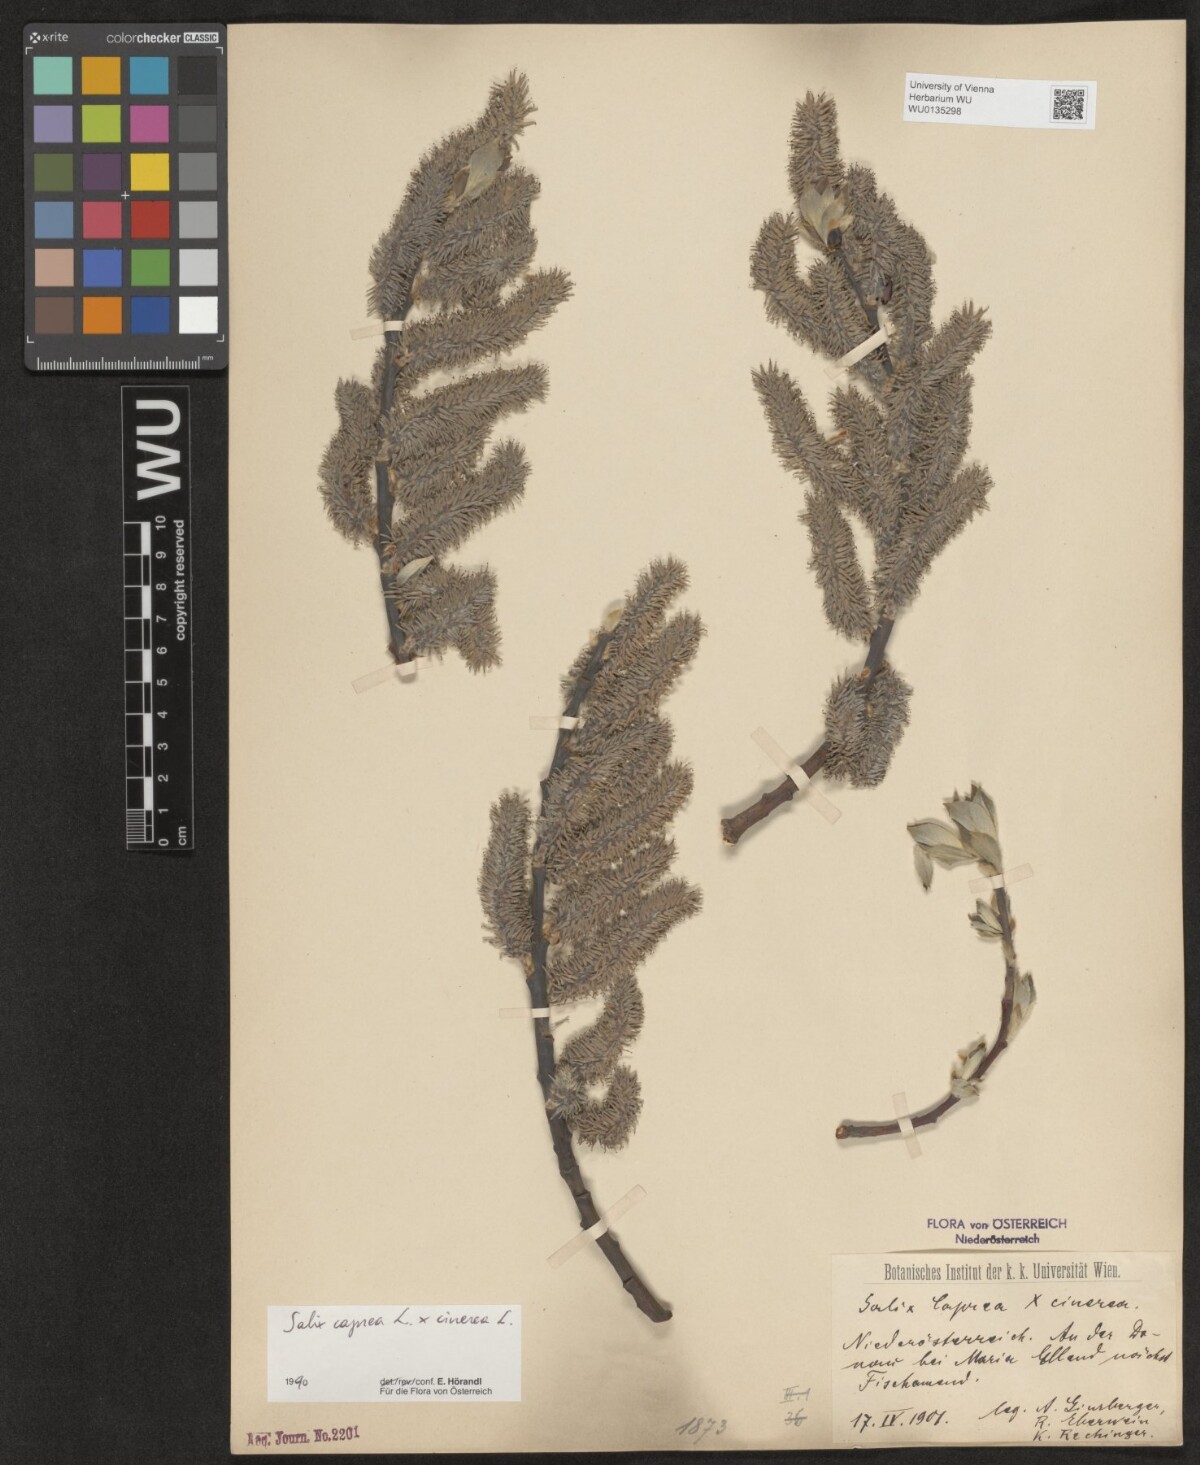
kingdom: Plantae
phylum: Tracheophyta
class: Magnoliopsida
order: Malpighiales
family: Salicaceae
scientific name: Salicaceae
